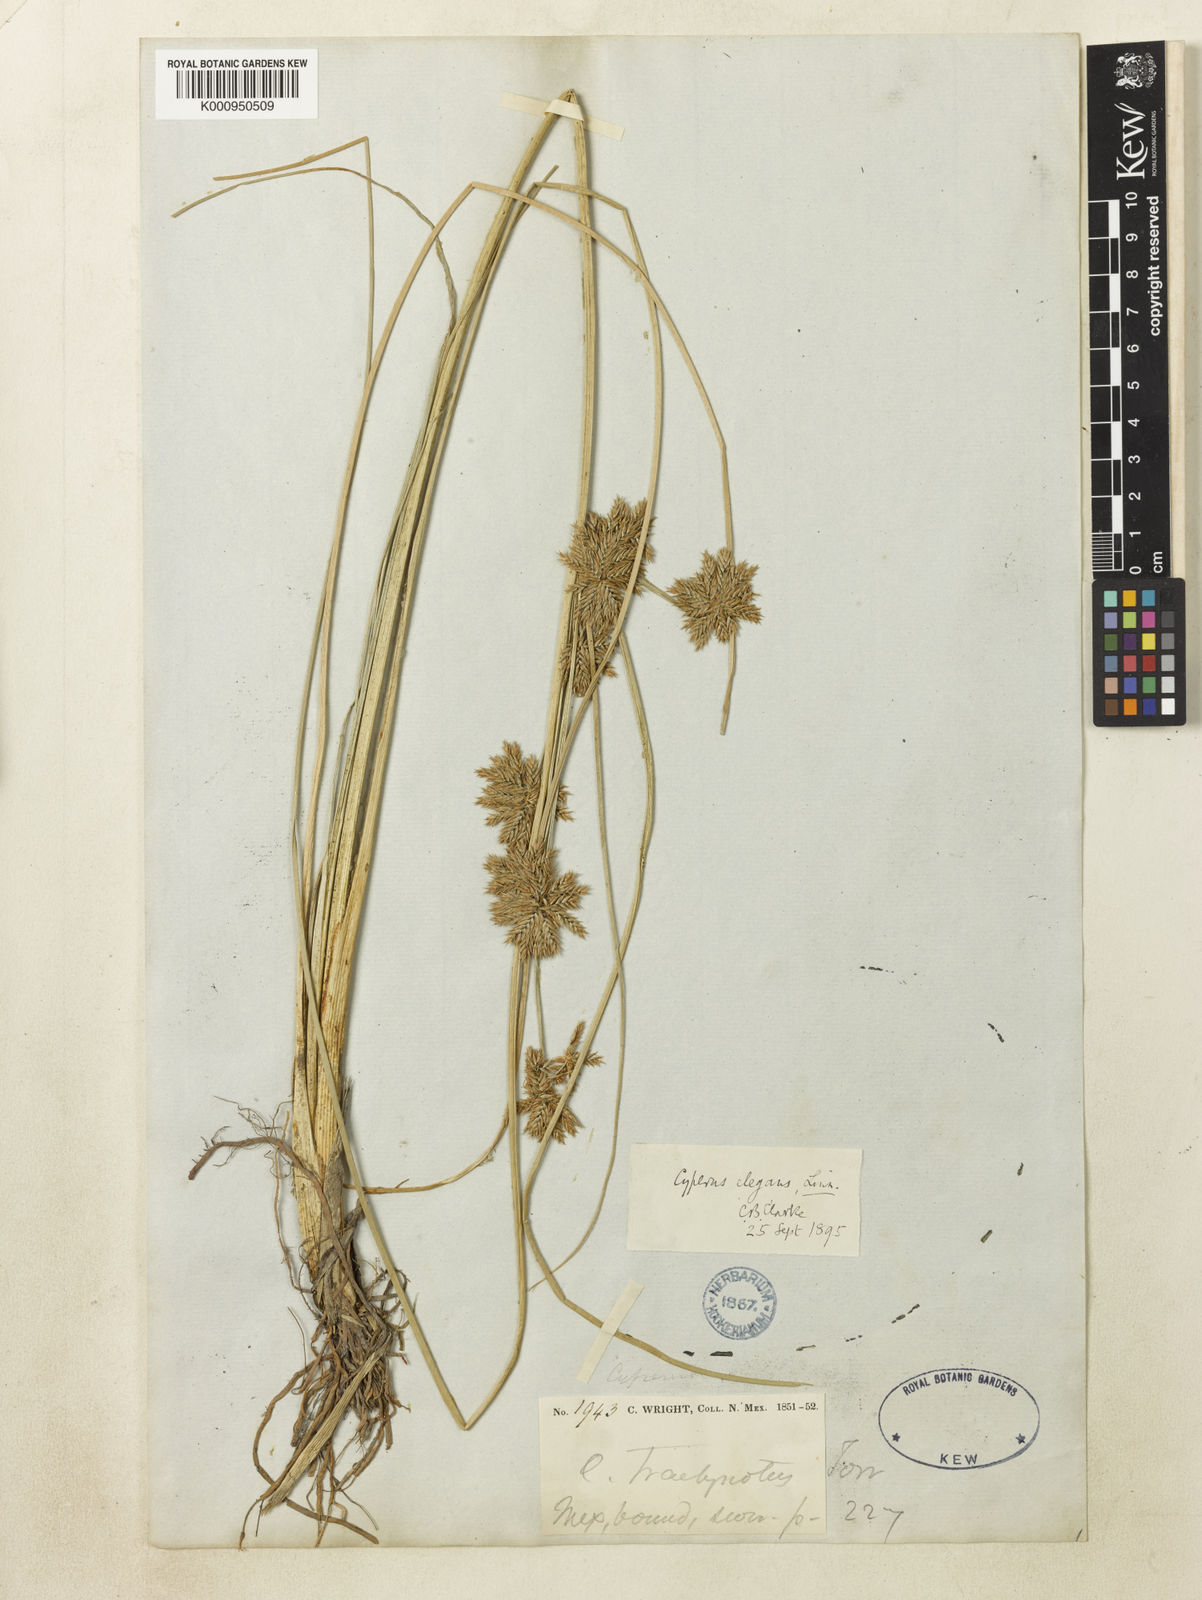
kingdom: Plantae
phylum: Tracheophyta
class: Liliopsida
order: Poales
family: Cyperaceae
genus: Cyperus
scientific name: Cyperus elegans
